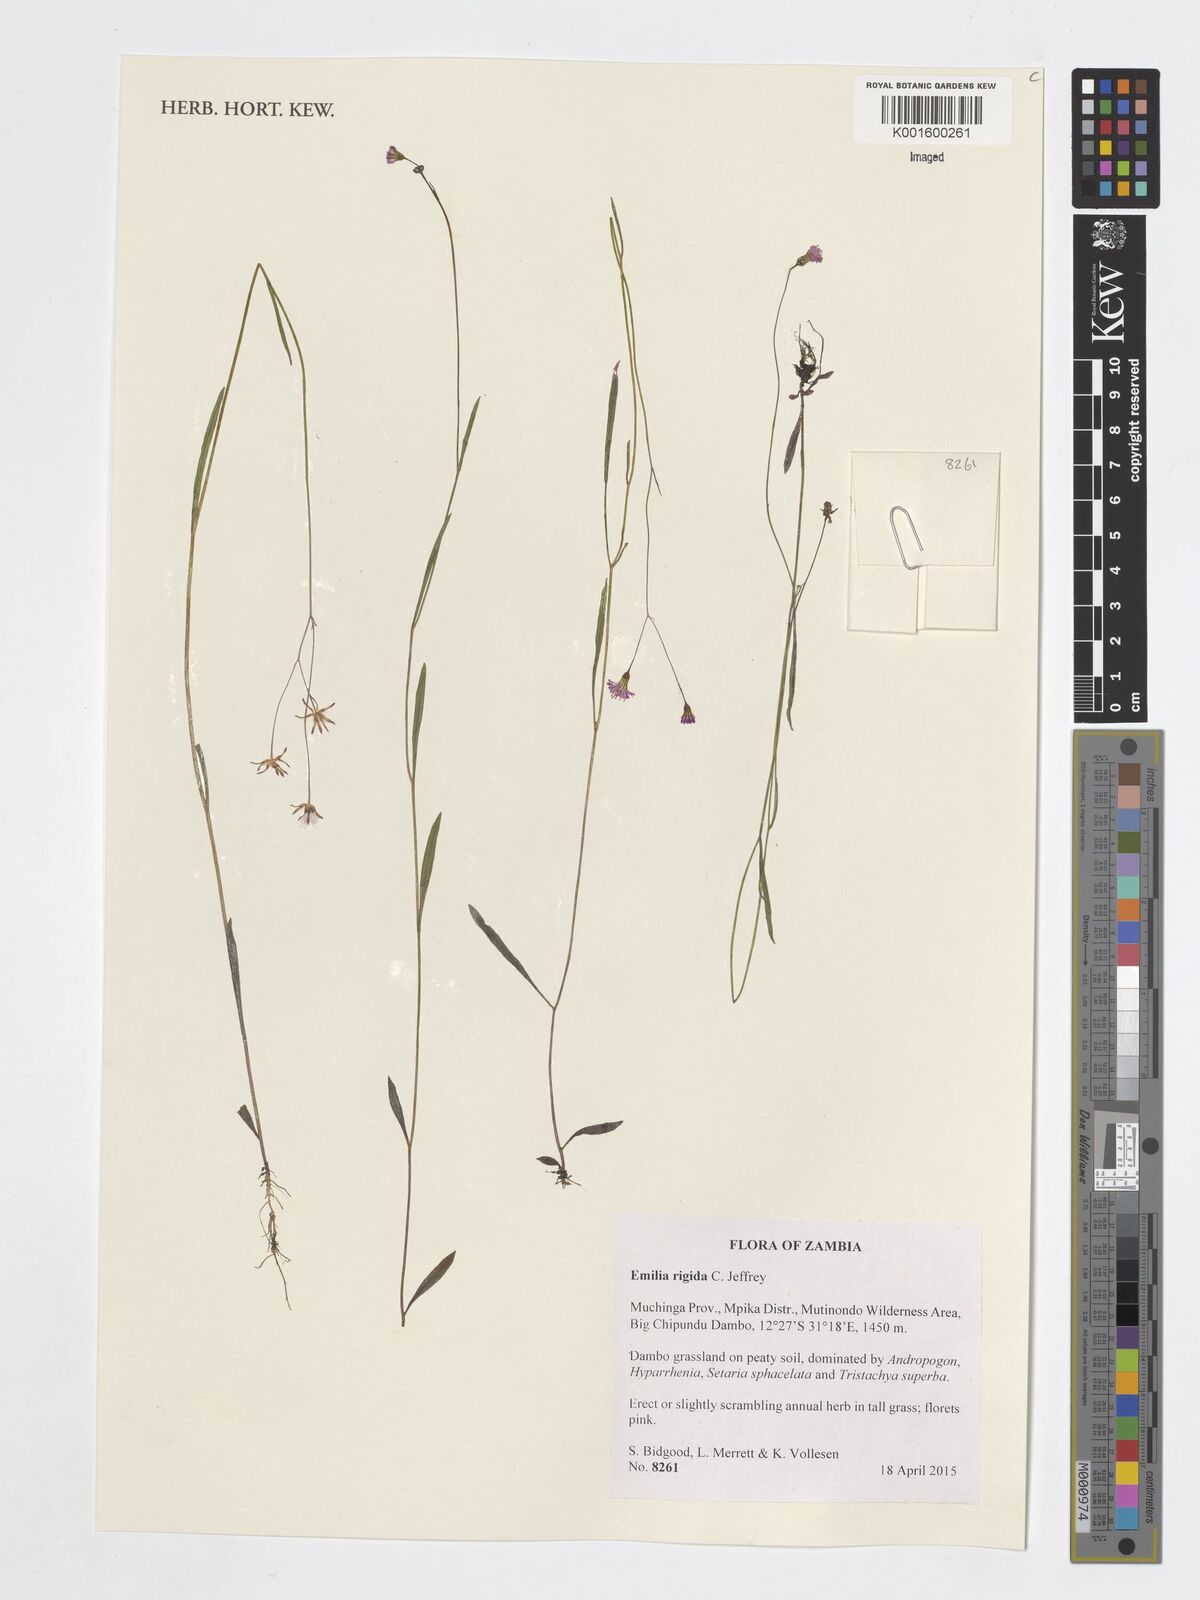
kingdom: Plantae
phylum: Tracheophyta
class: Magnoliopsida
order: Asterales
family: Asteraceae
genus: Emilia
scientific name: Emilia rigida
